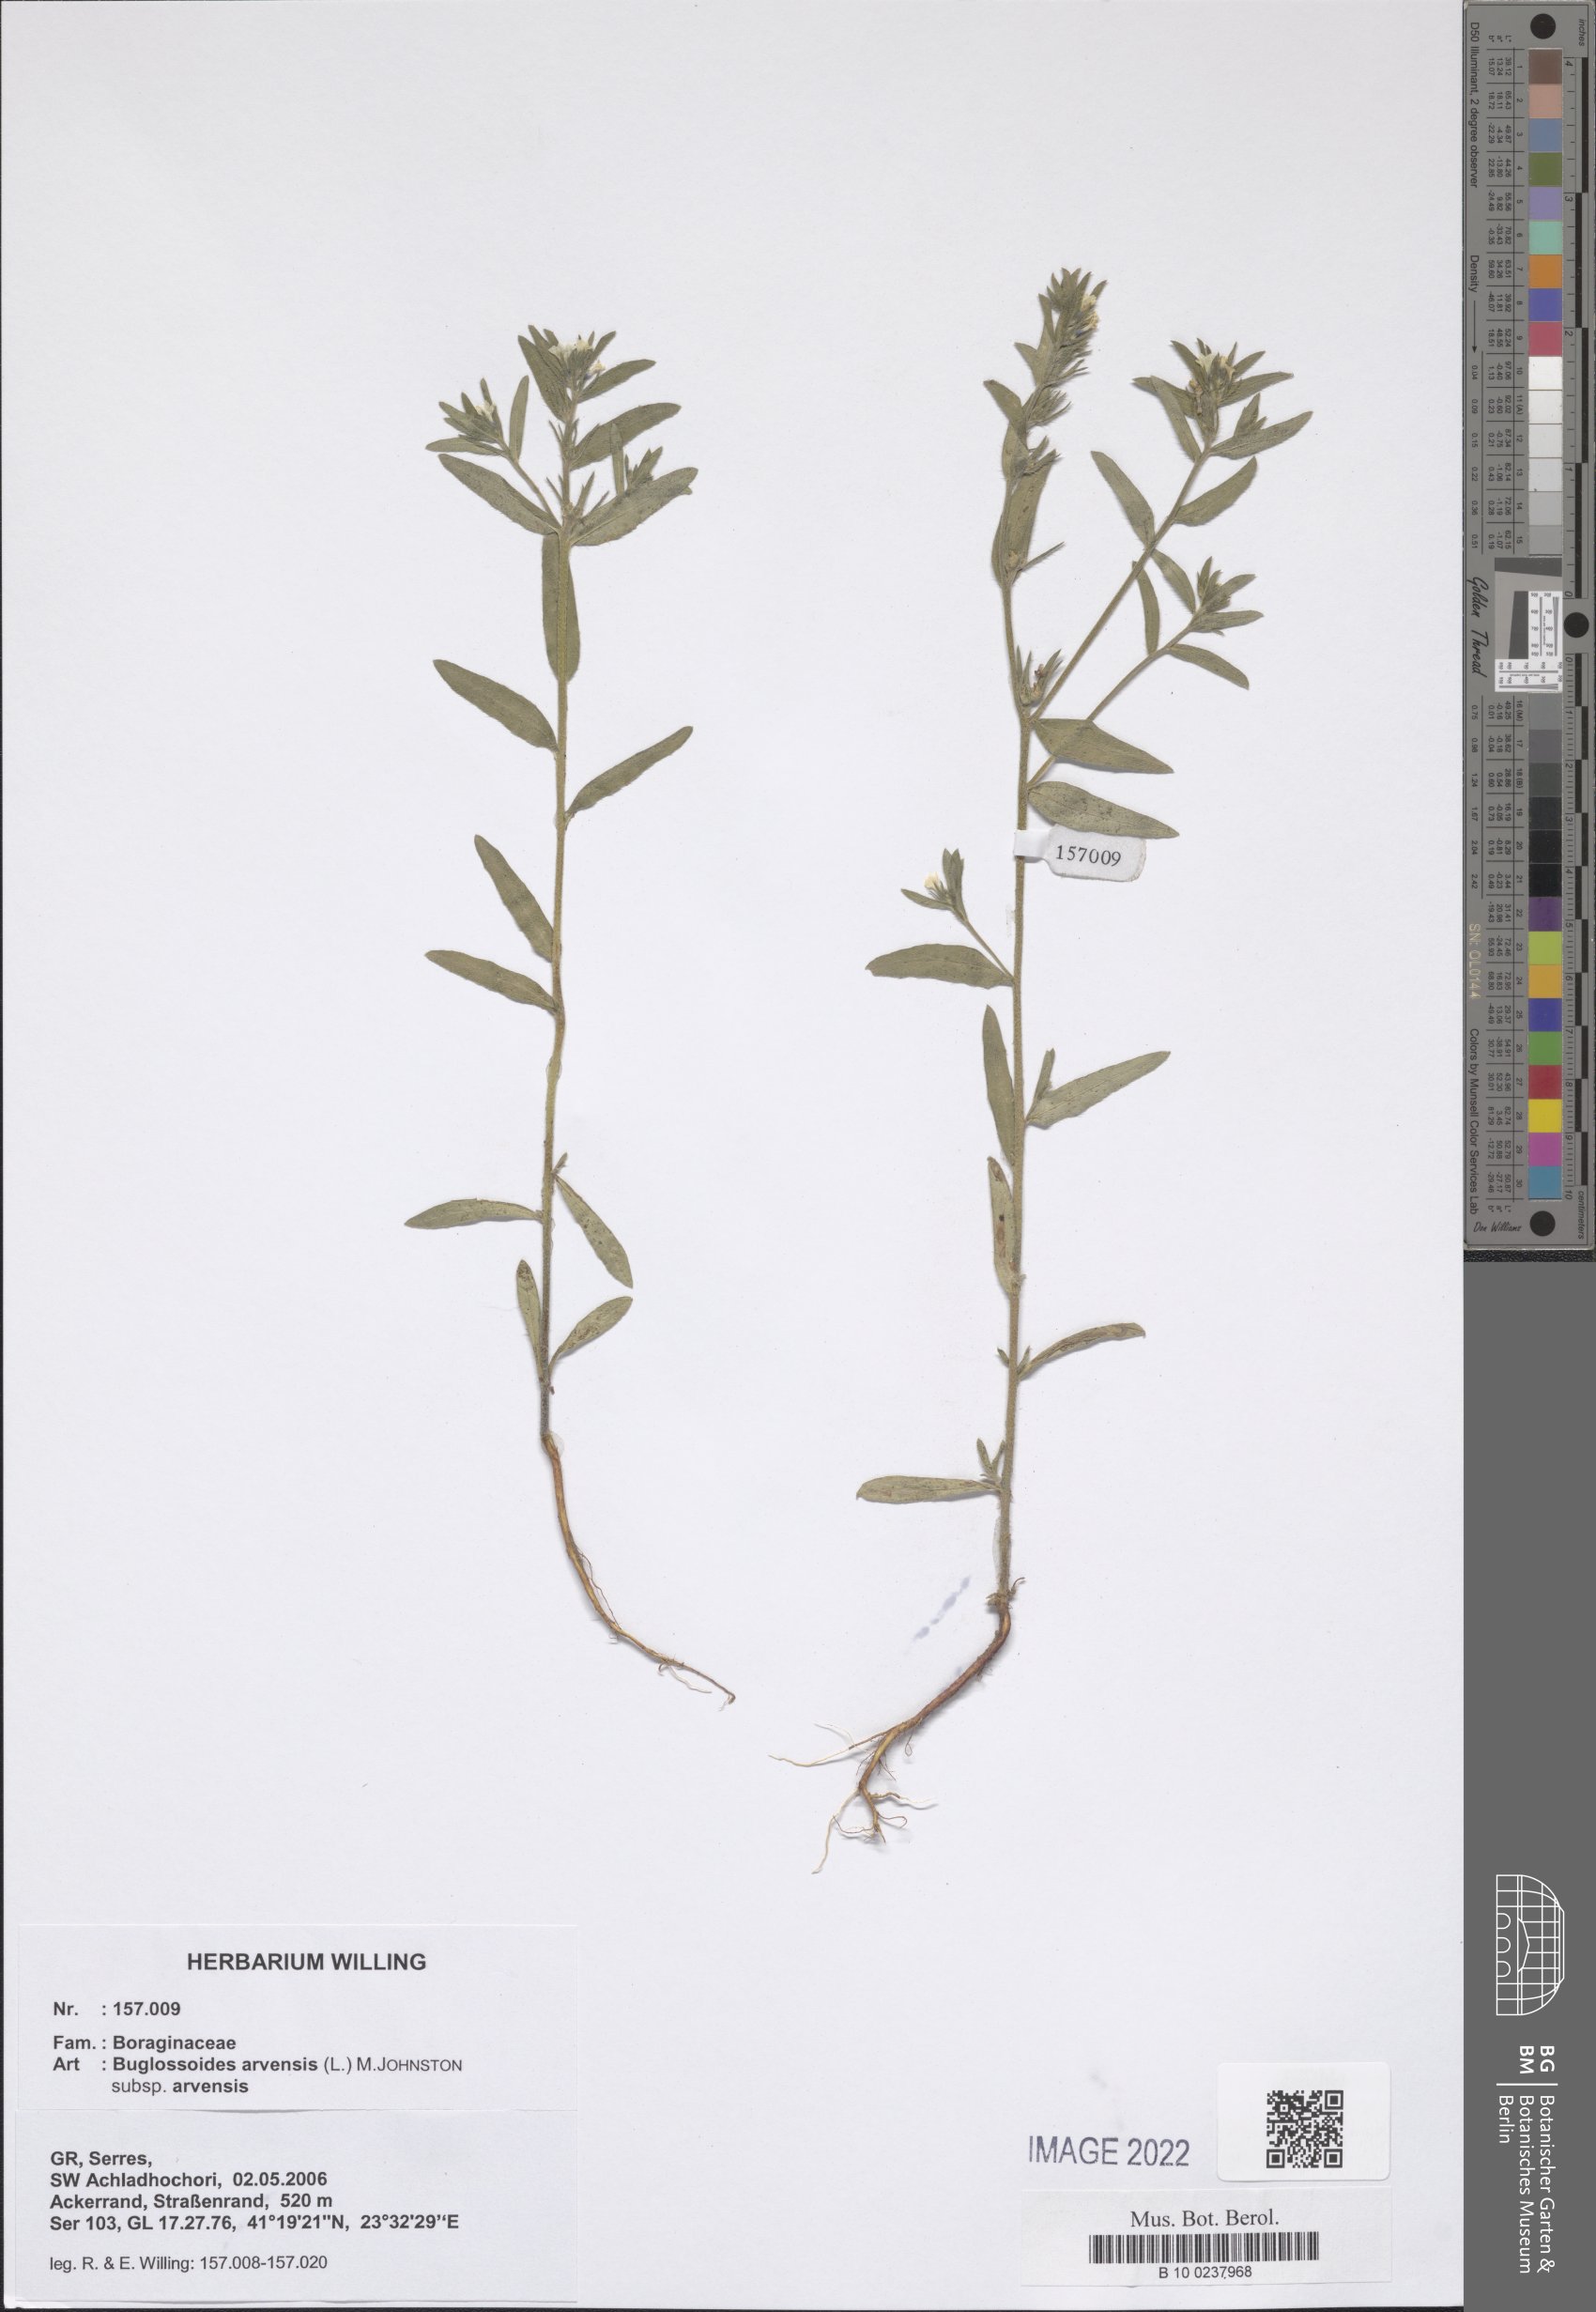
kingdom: Plantae
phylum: Tracheophyta
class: Magnoliopsida
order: Boraginales
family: Boraginaceae
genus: Buglossoides
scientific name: Buglossoides arvensis
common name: Corn gromwell
